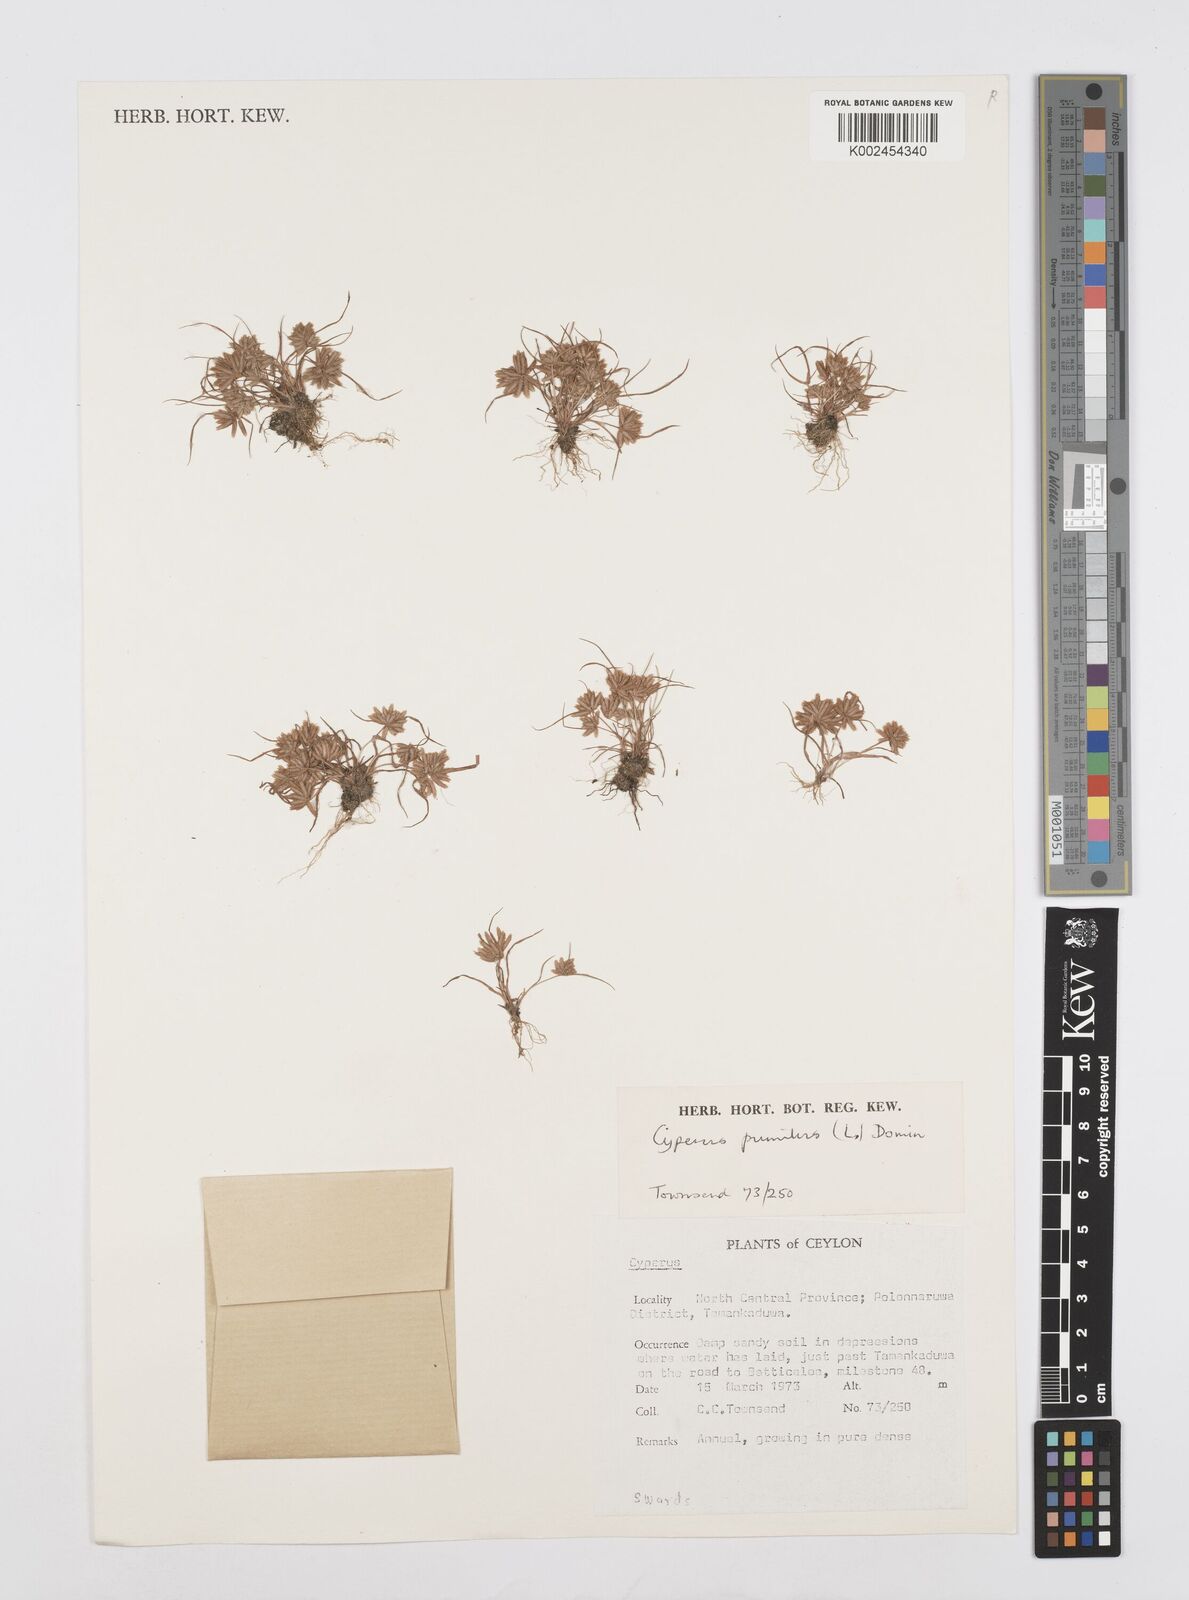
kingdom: Plantae
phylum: Tracheophyta
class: Liliopsida
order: Poales
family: Cyperaceae
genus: Cyperus
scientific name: Cyperus pumilus
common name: Low flatsedge
